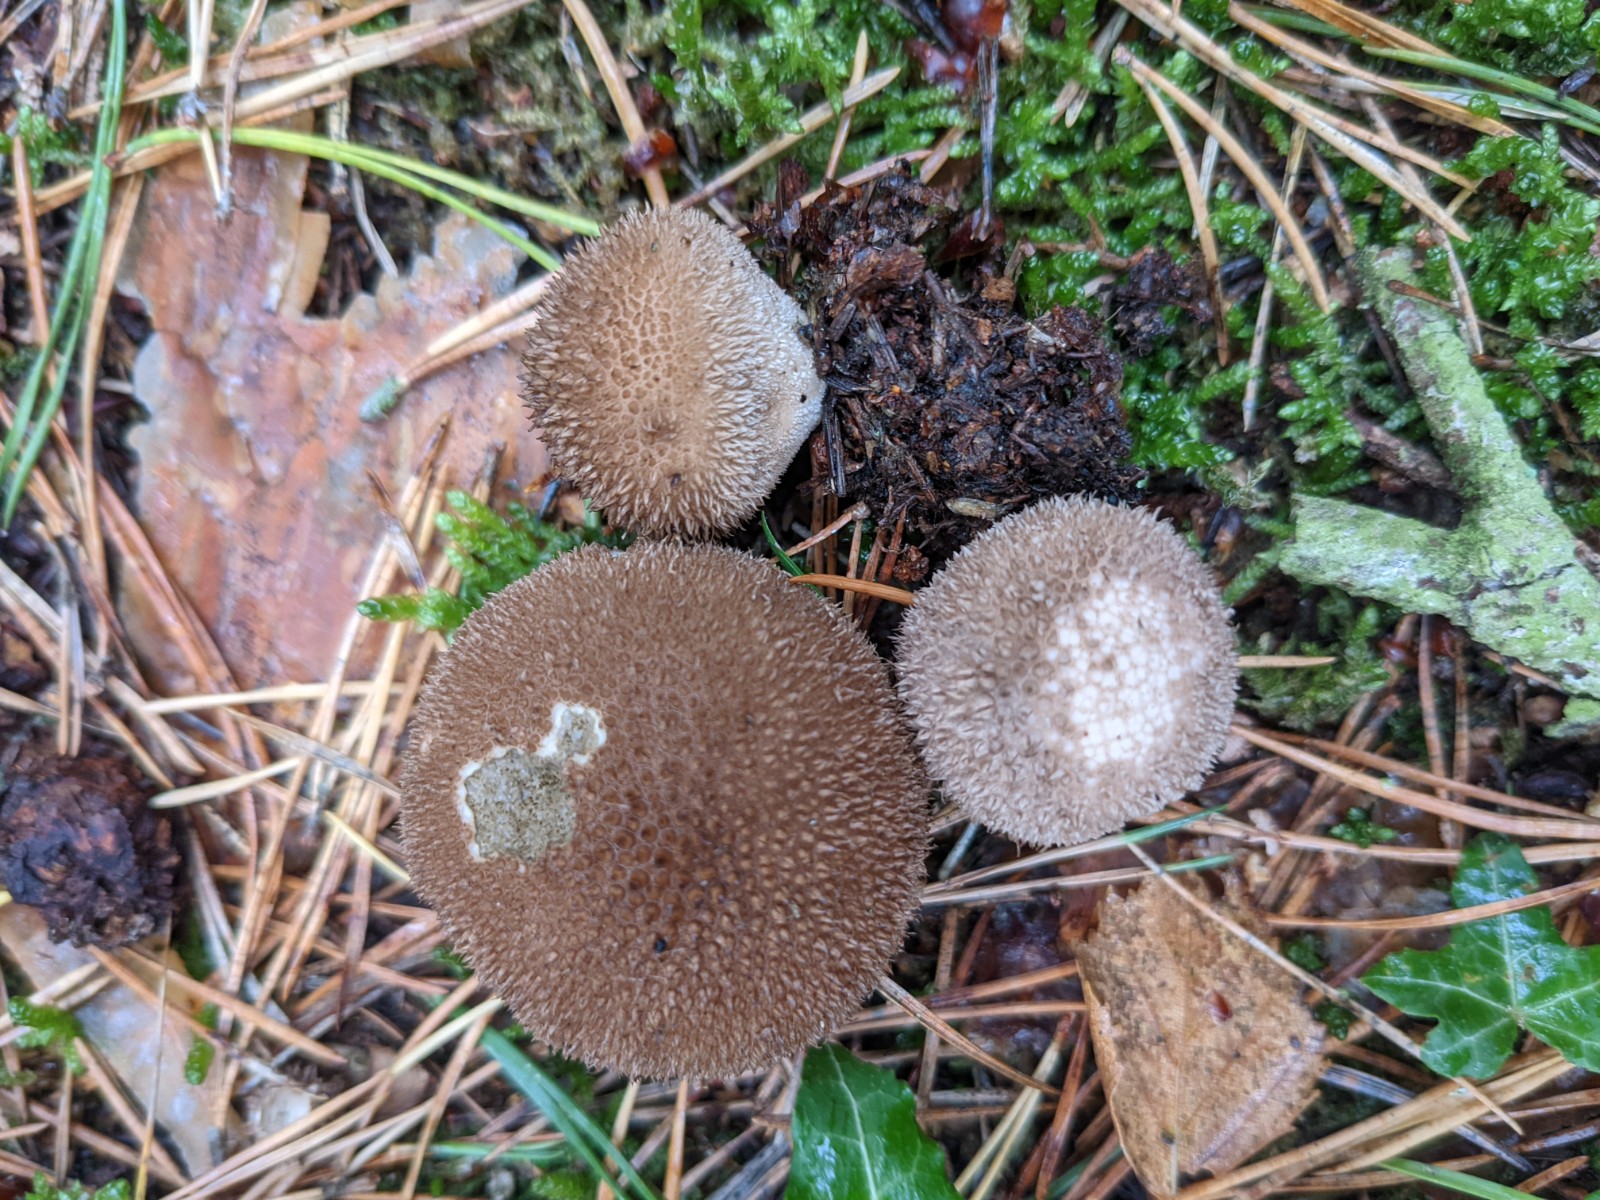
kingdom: Fungi
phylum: Basidiomycota
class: Agaricomycetes
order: Agaricales
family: Lycoperdaceae
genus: Lycoperdon
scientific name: Lycoperdon nigrescens
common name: sortagtig støvbold
